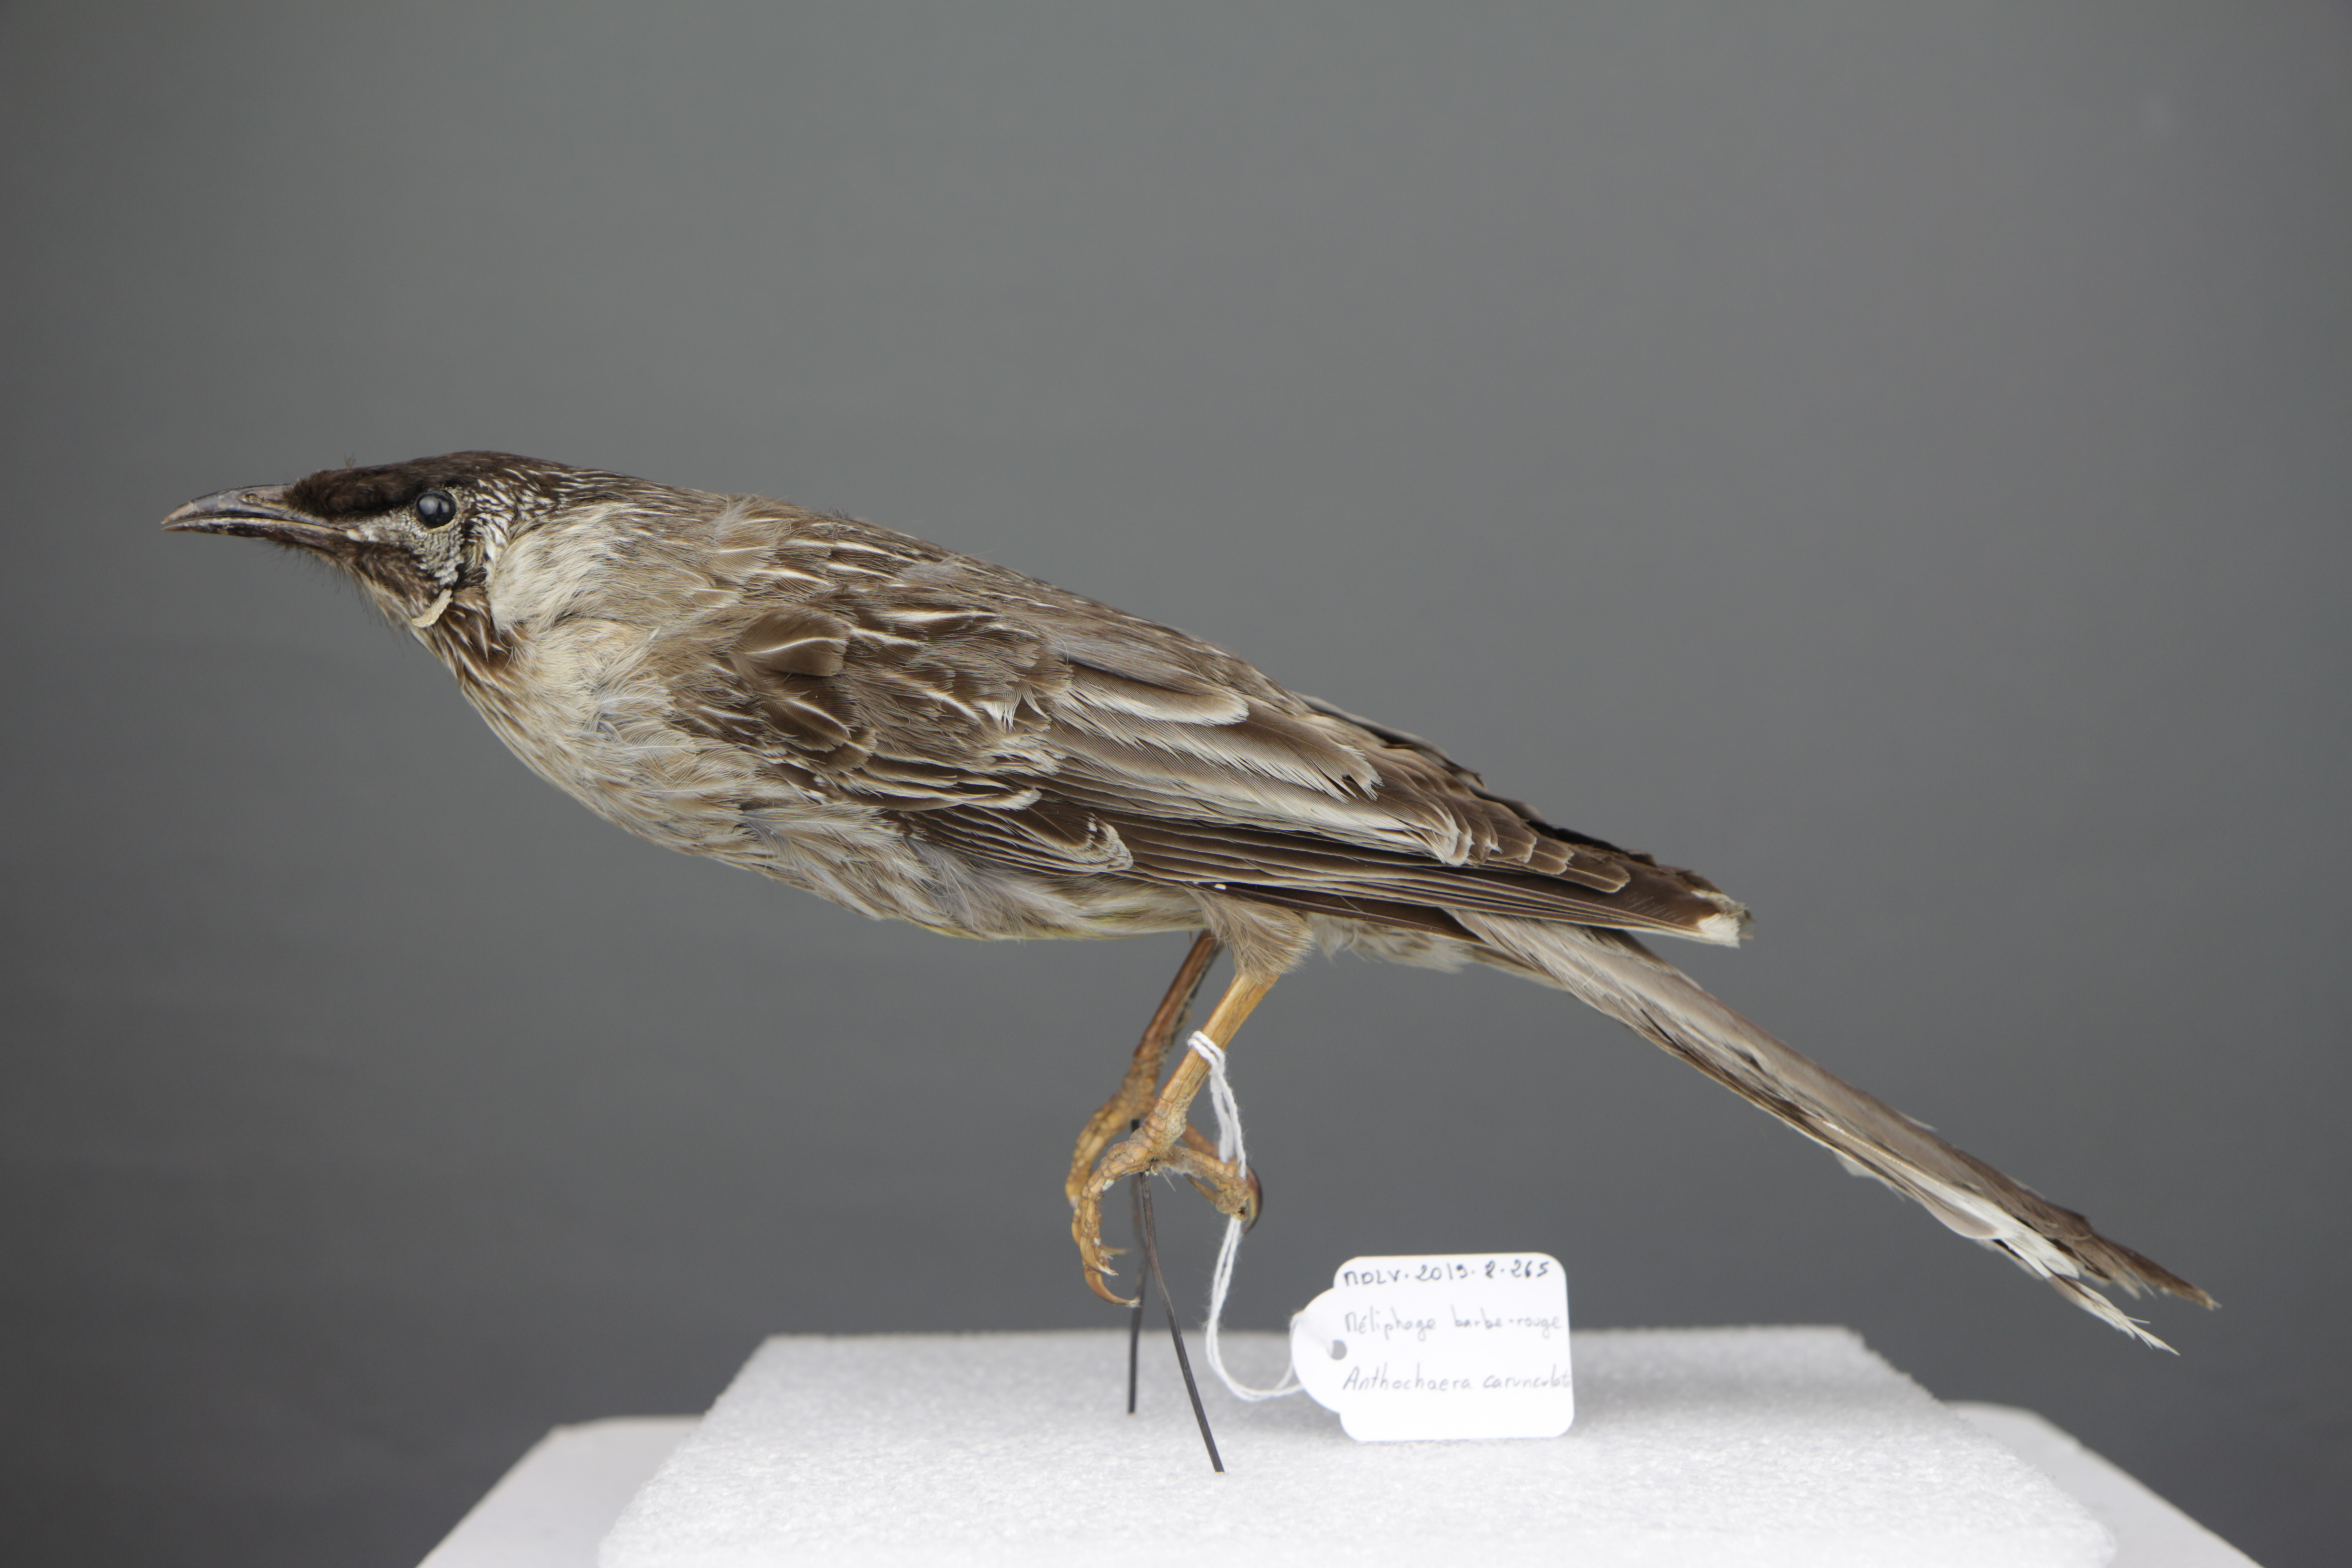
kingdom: Animalia
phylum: Chordata
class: Aves
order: Passeriformes
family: Meliphagidae
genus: Anthochaera
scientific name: Anthochaera carunculata
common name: Red wattlebird
